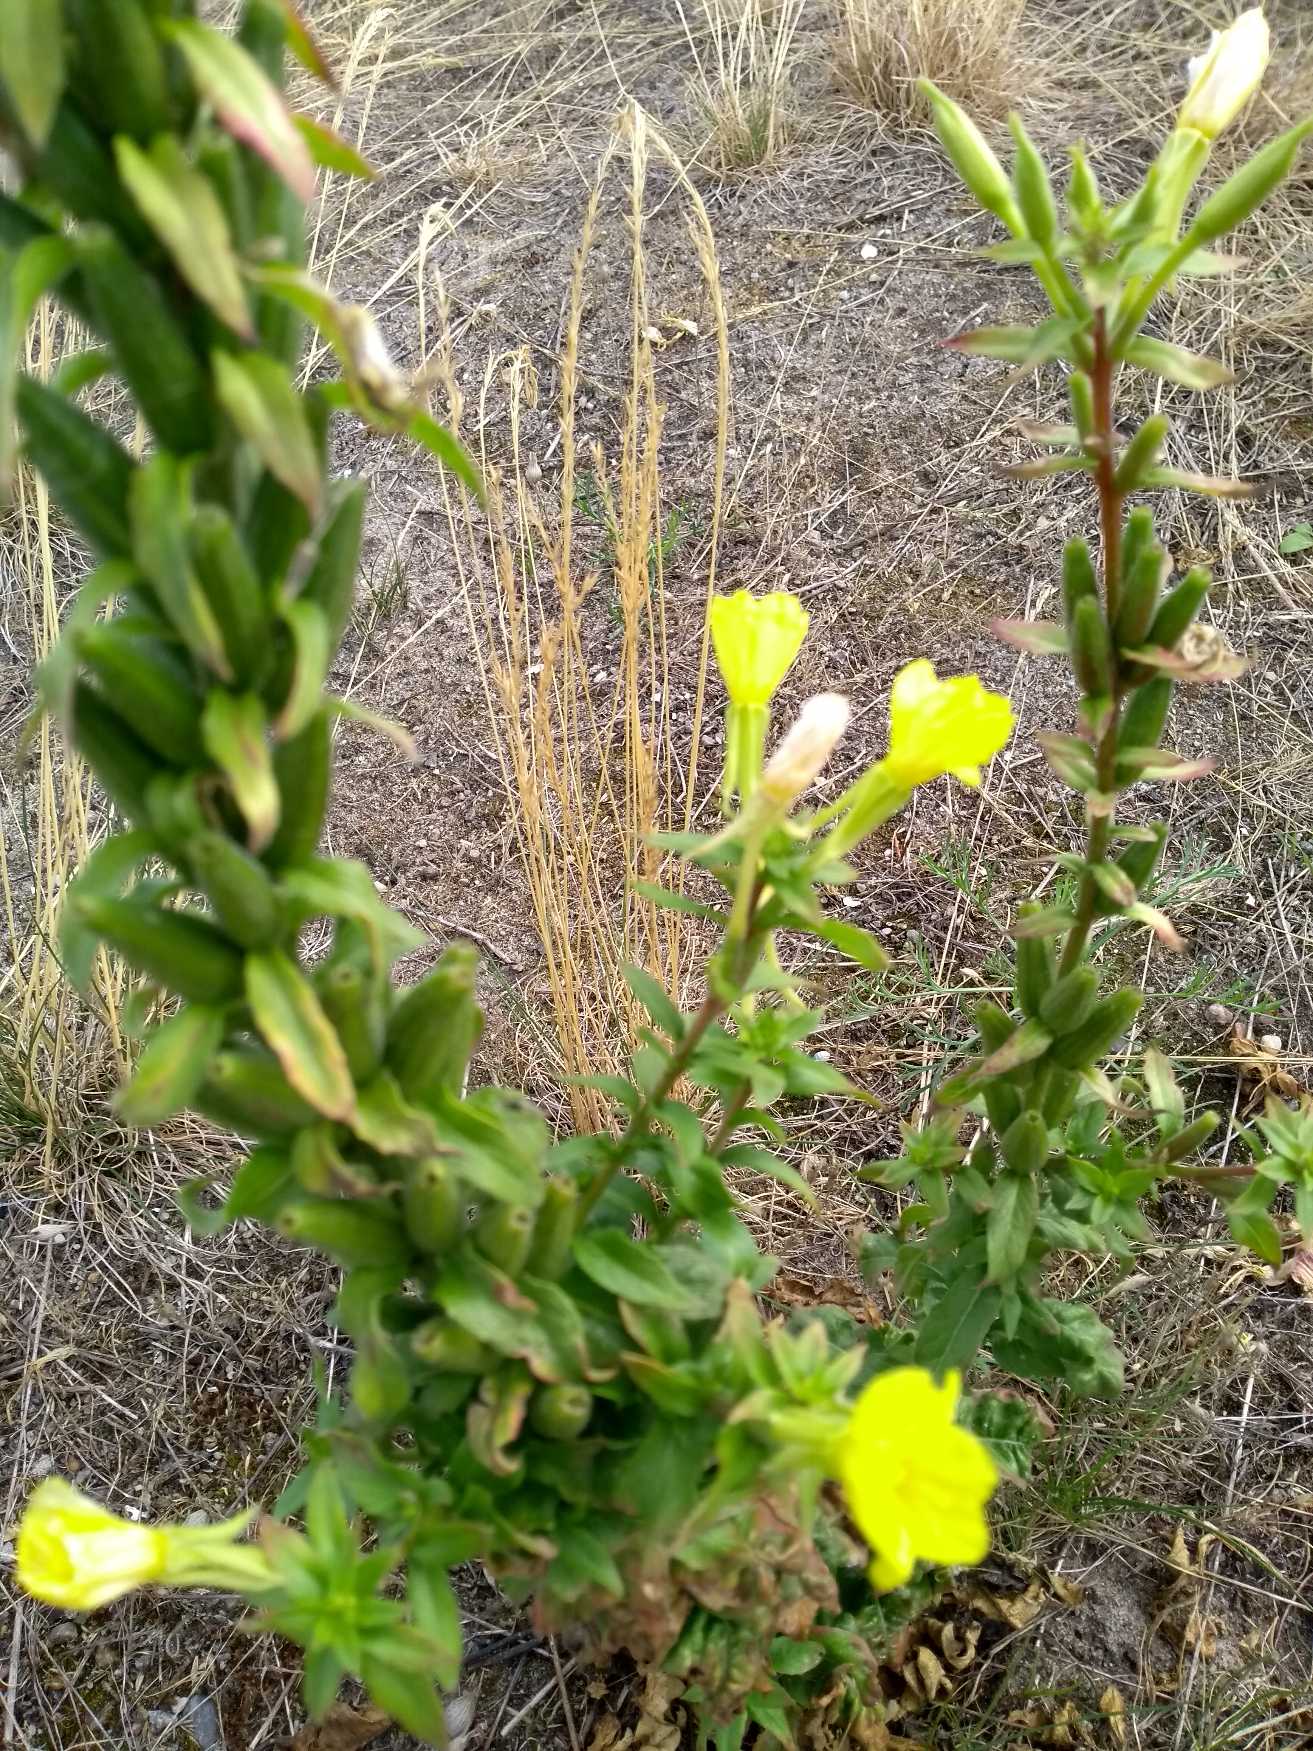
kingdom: Plantae
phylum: Tracheophyta
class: Magnoliopsida
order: Myrtales
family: Onagraceae
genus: Oenothera
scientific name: Oenothera
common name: Natlysslægten
